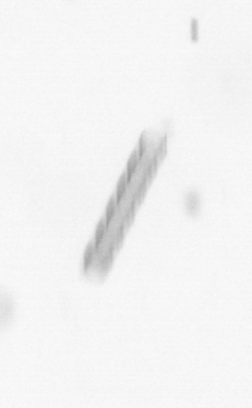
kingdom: Chromista
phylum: Ochrophyta
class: Bacillariophyceae
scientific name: Bacillariophyceae
